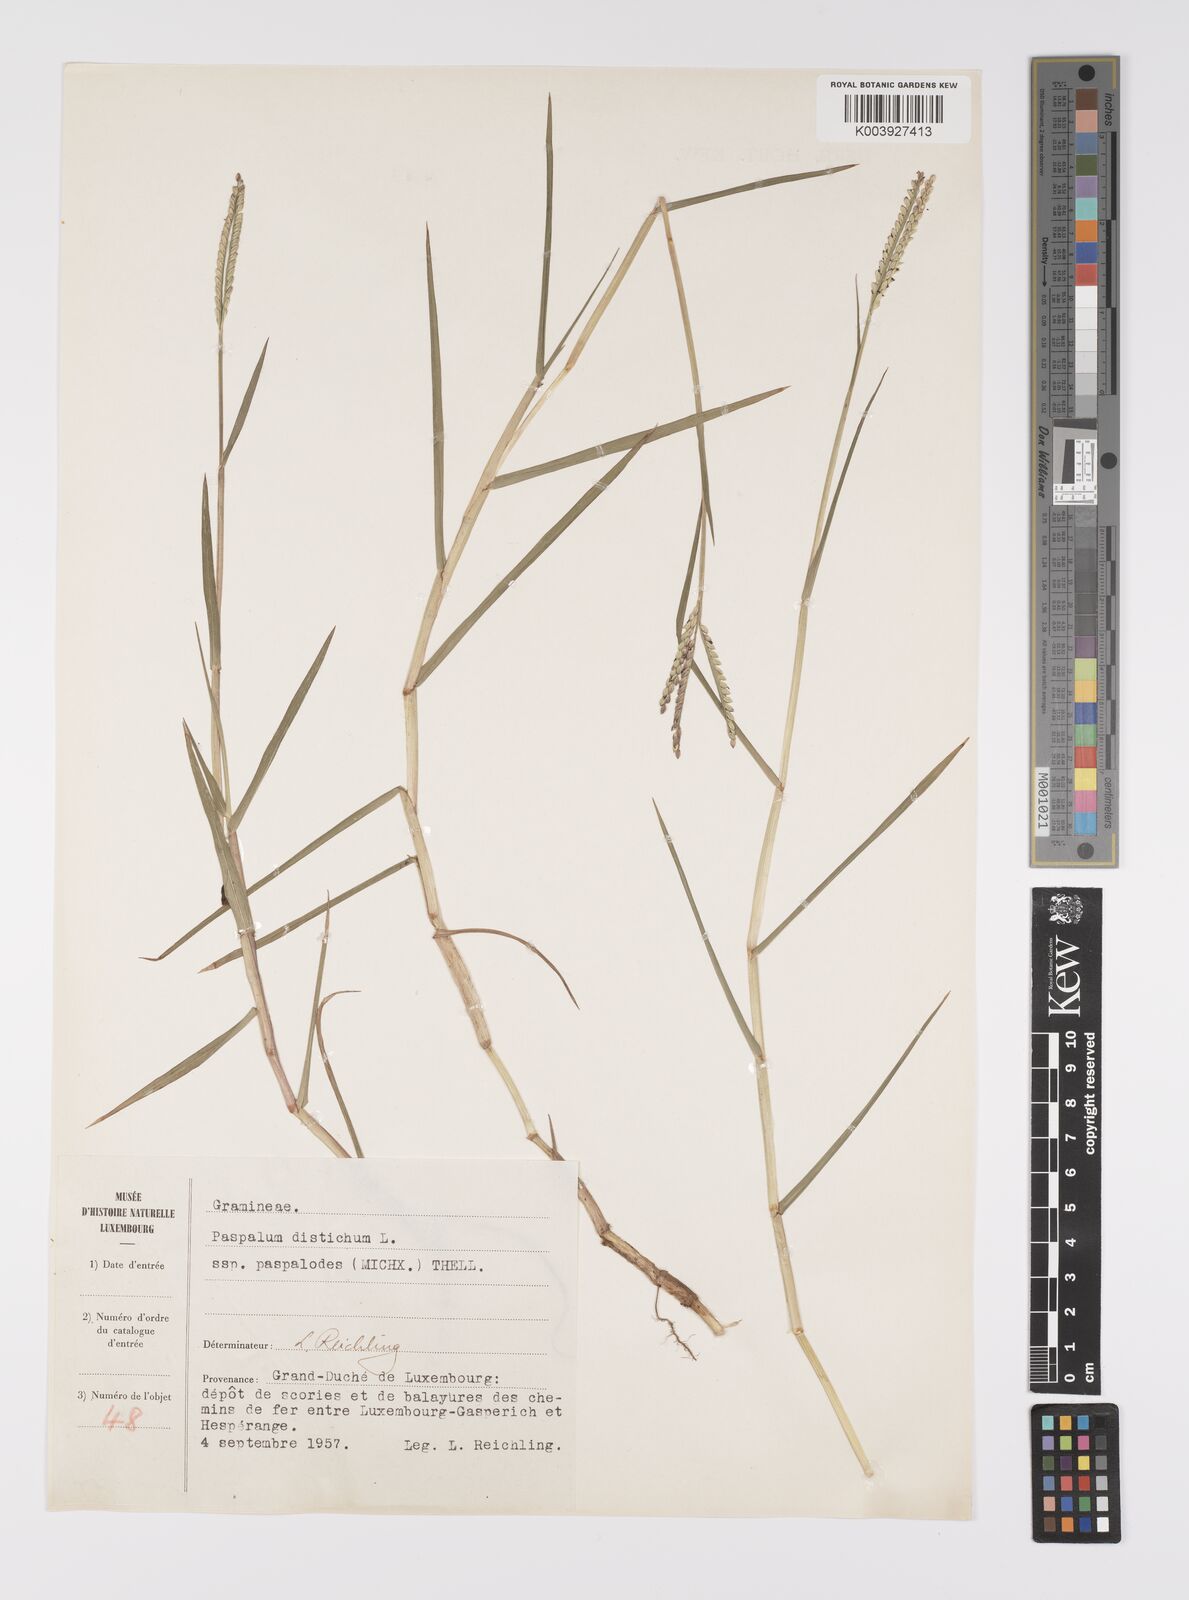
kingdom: Plantae
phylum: Tracheophyta
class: Liliopsida
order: Poales
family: Poaceae
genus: Paspalum
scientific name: Paspalum distichum
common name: Knotgrass
